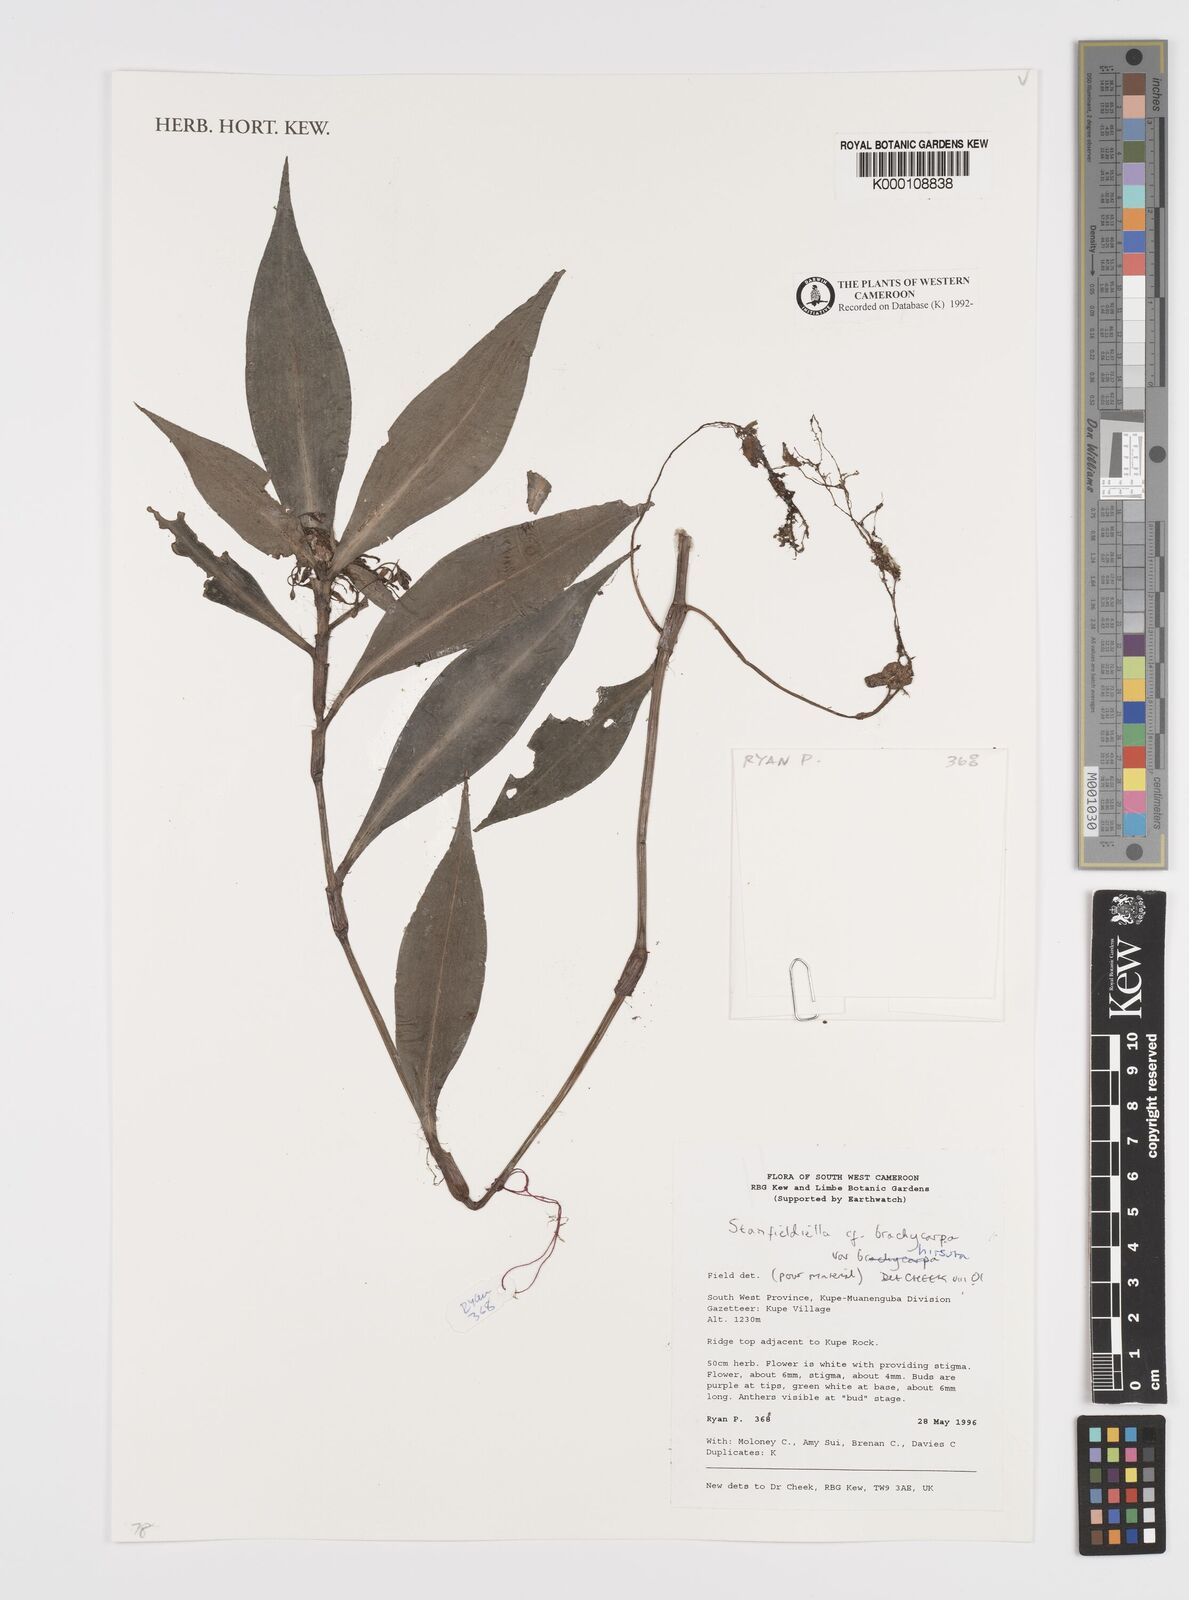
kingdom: Plantae
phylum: Tracheophyta
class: Liliopsida
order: Commelinales
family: Commelinaceae
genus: Stanfieldiella
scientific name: Stanfieldiella brachycarpa
